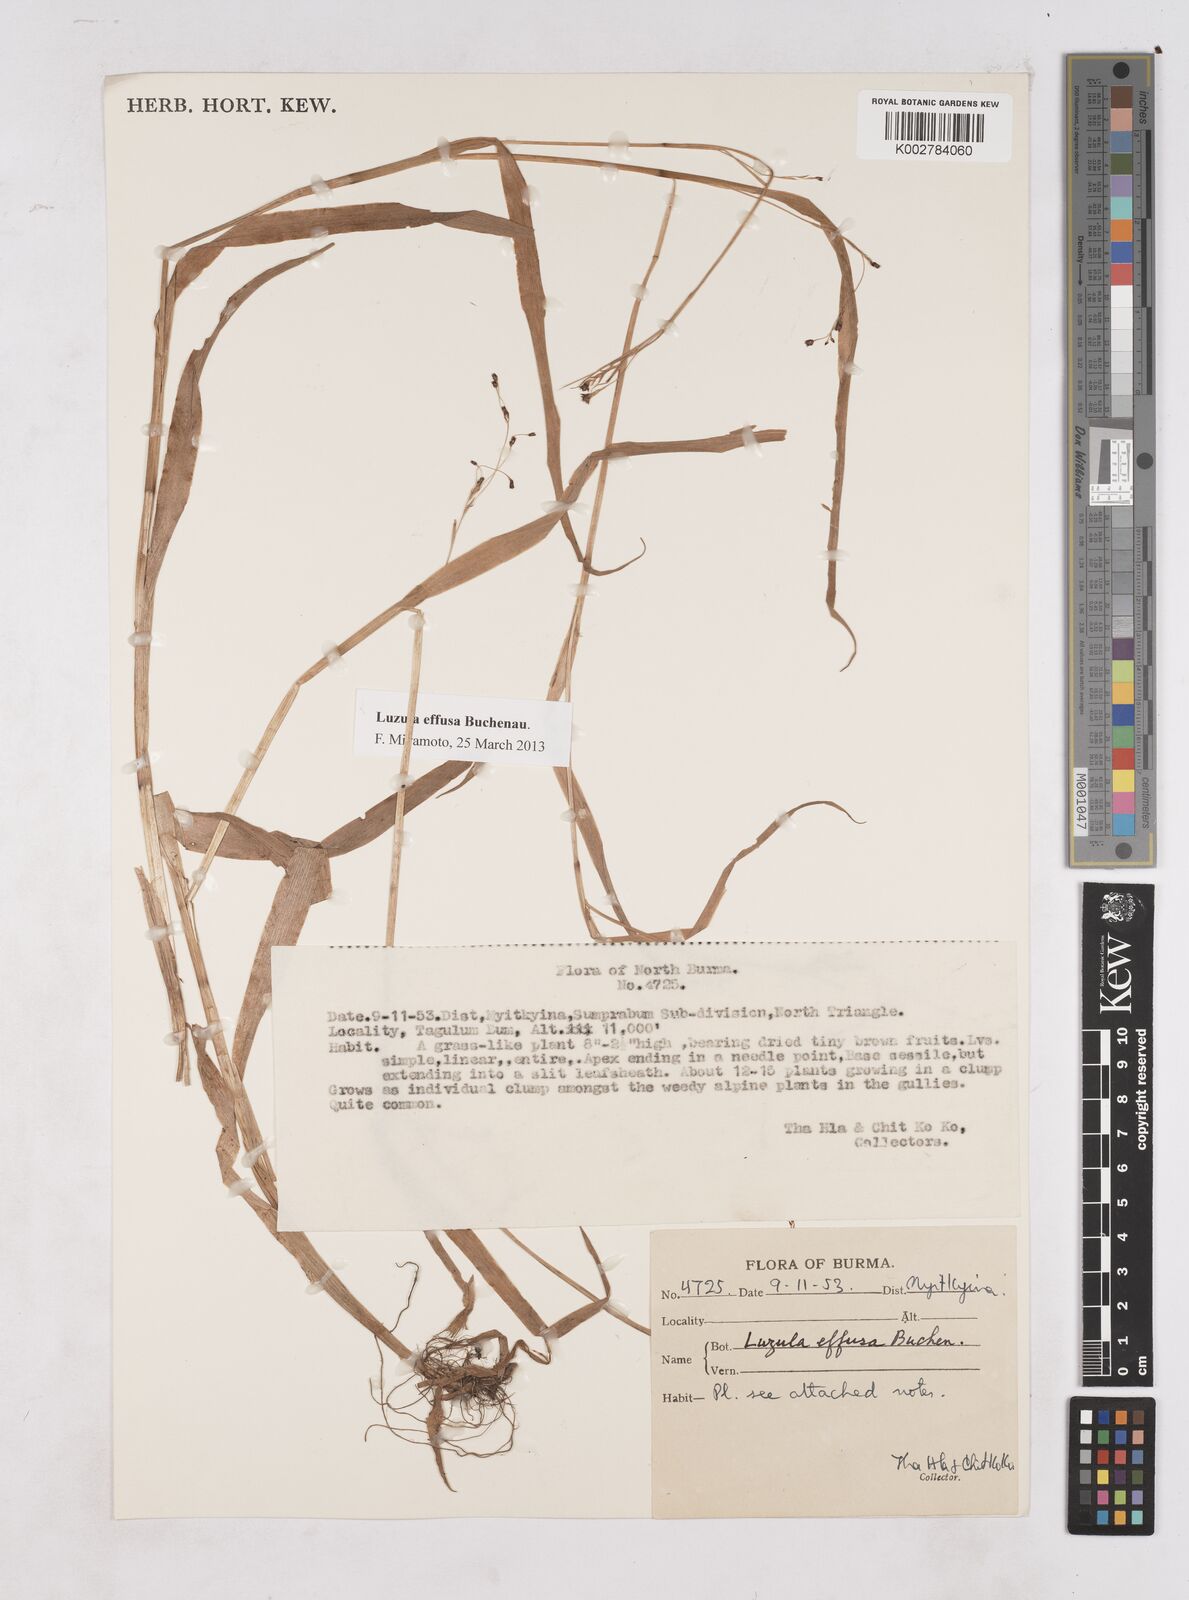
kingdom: Plantae
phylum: Tracheophyta
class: Liliopsida
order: Poales
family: Juncaceae
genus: Luzula
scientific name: Luzula effusa
